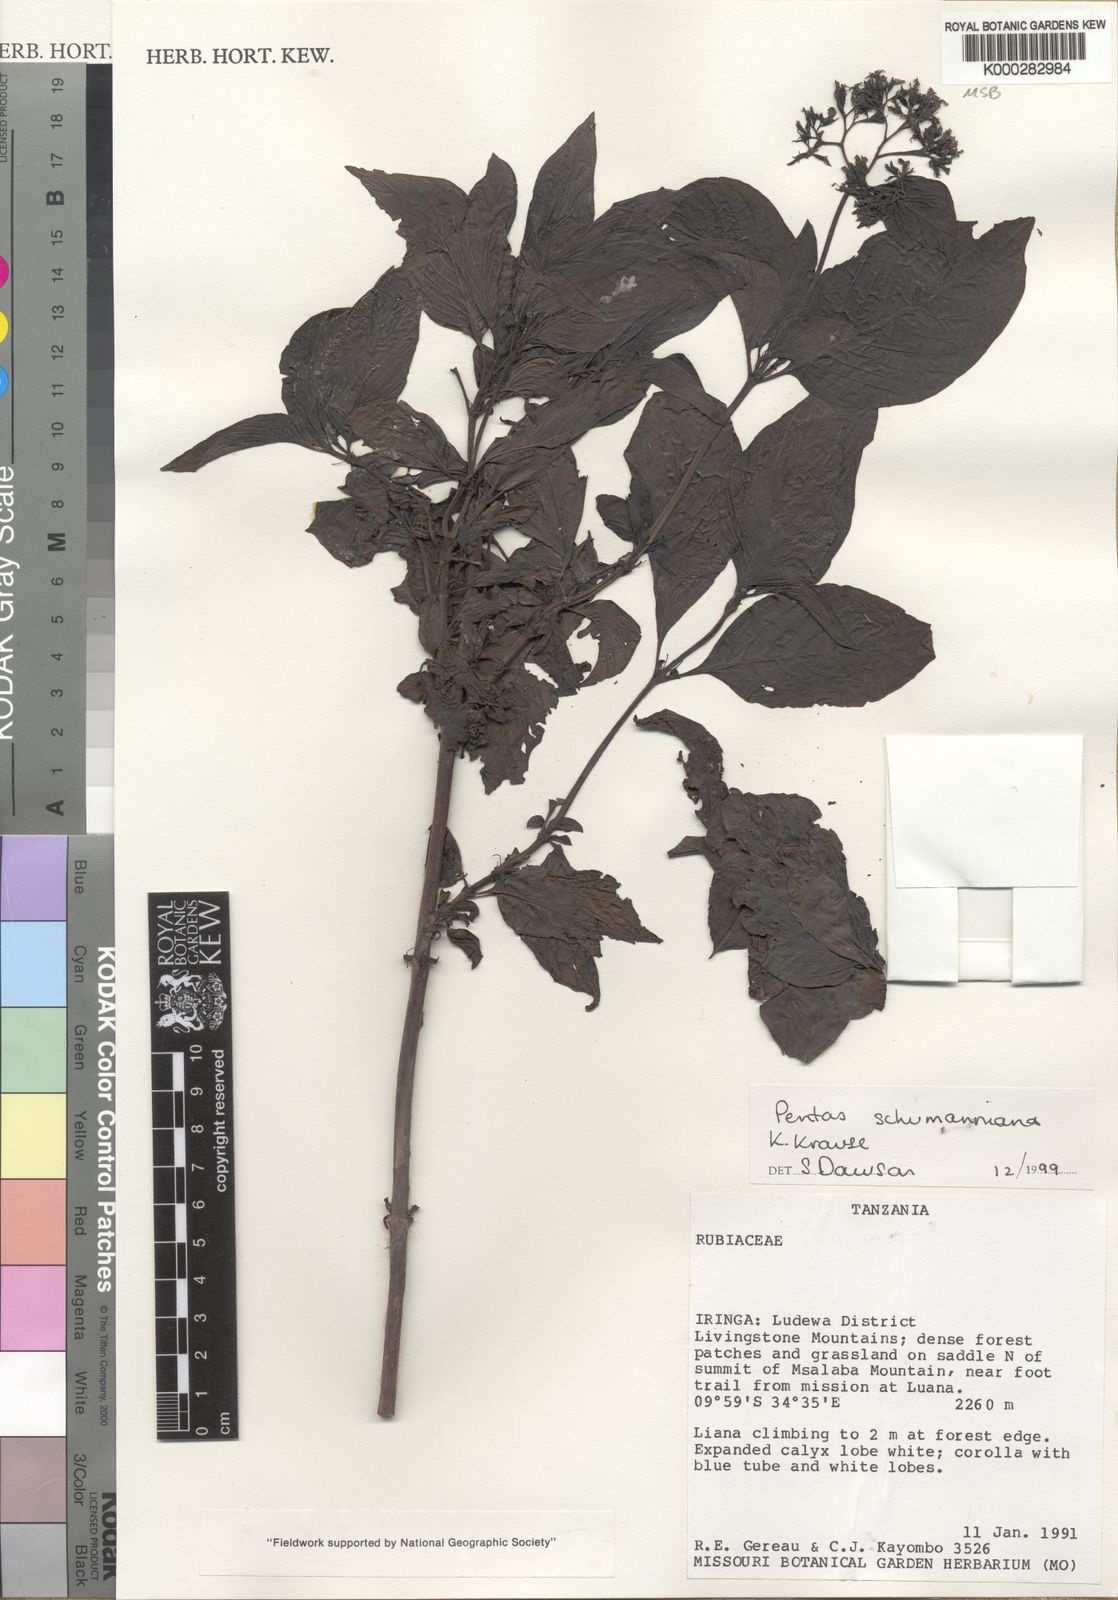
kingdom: Plantae
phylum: Tracheophyta
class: Magnoliopsida
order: Gentianales
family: Rubiaceae
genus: Phyllopentas
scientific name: Phyllopentas schumanniana
